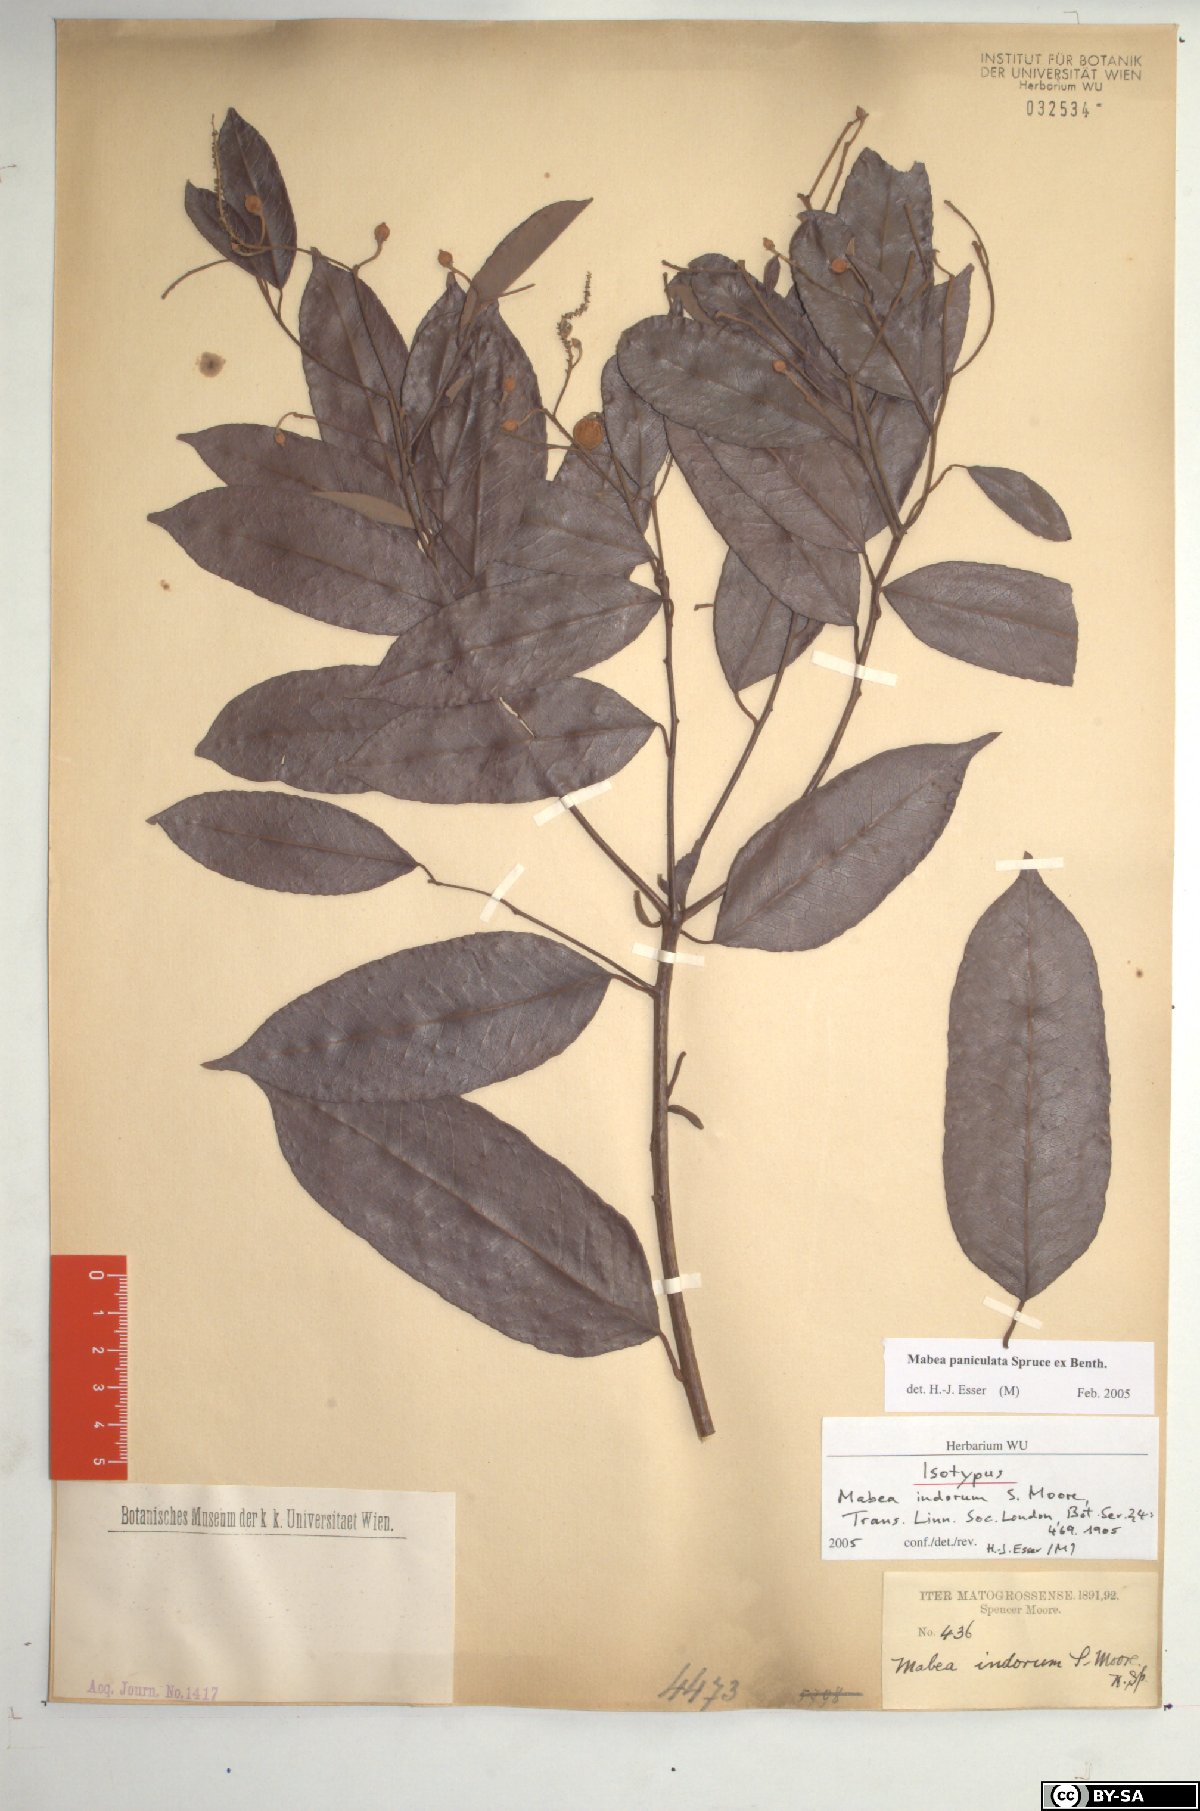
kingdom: Plantae
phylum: Tracheophyta
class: Magnoliopsida
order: Malpighiales
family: Euphorbiaceae
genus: Mabea
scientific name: Mabea paniculata
